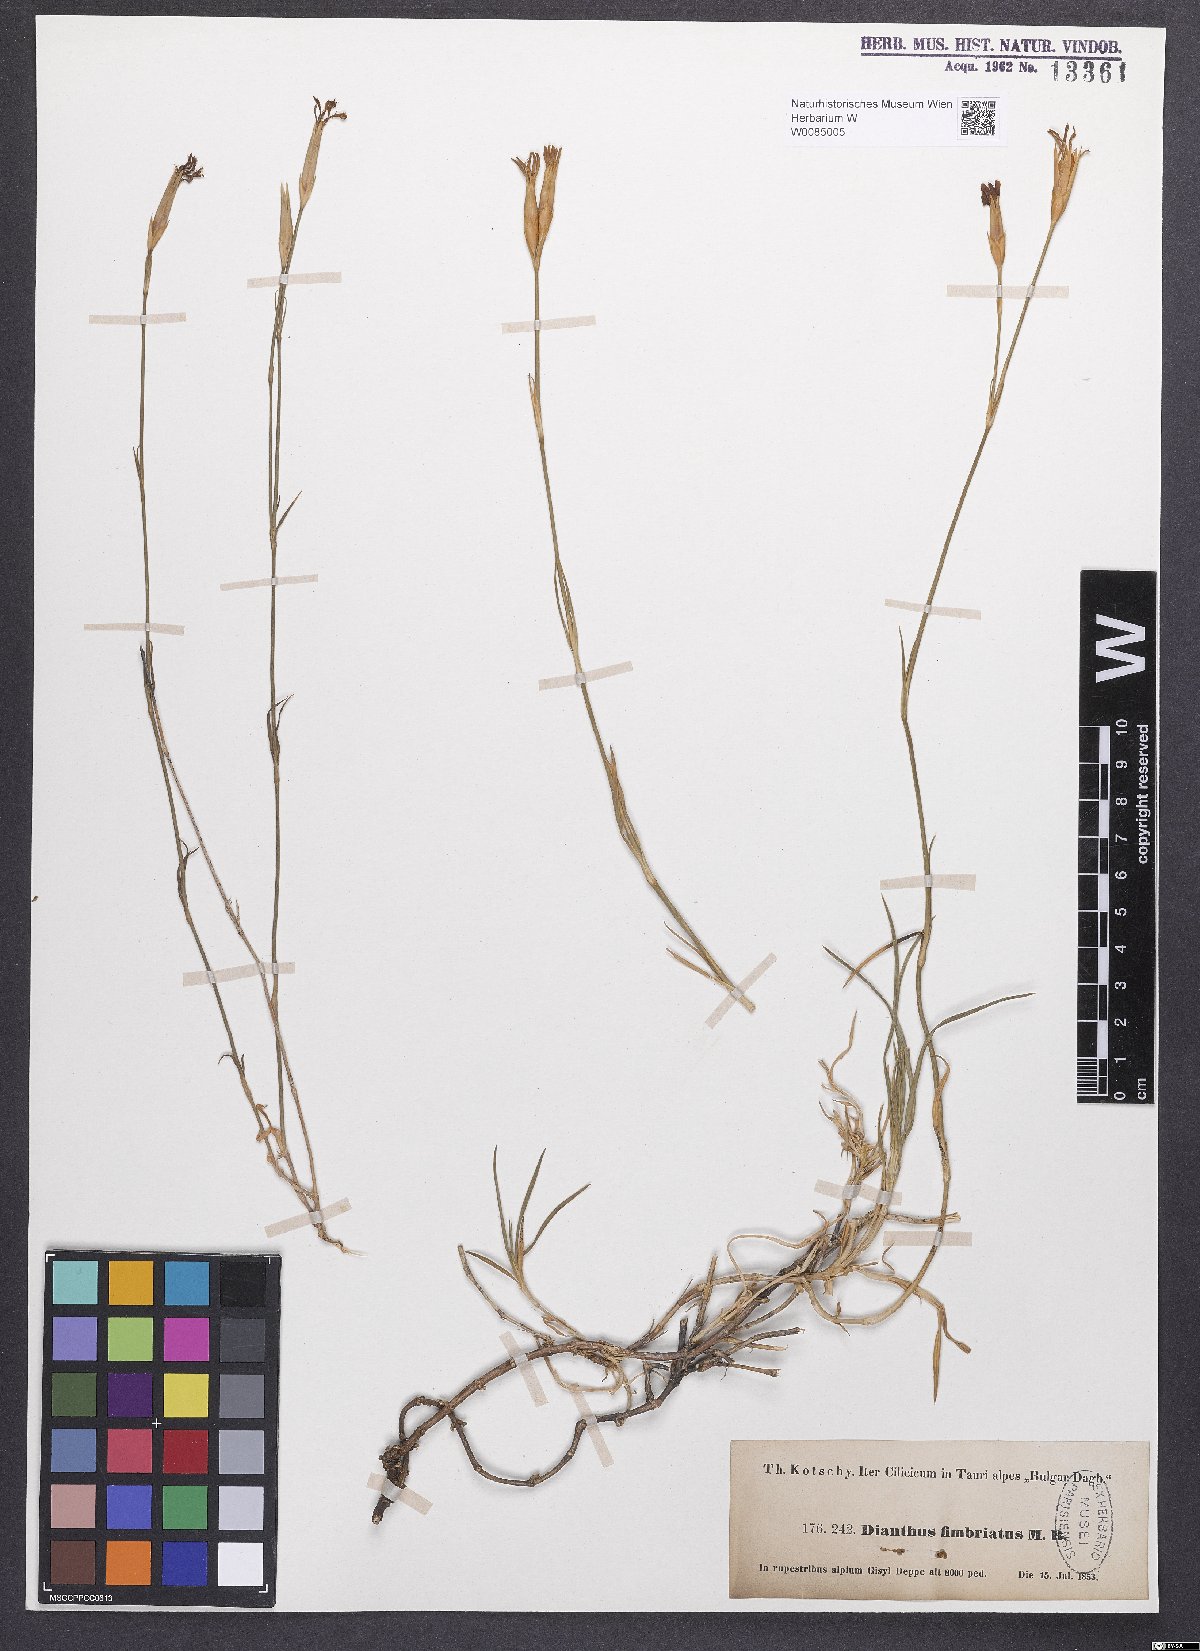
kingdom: Plantae
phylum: Tracheophyta
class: Magnoliopsida
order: Caryophyllales
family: Caryophyllaceae
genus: Dianthus
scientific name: Dianthus broteri
